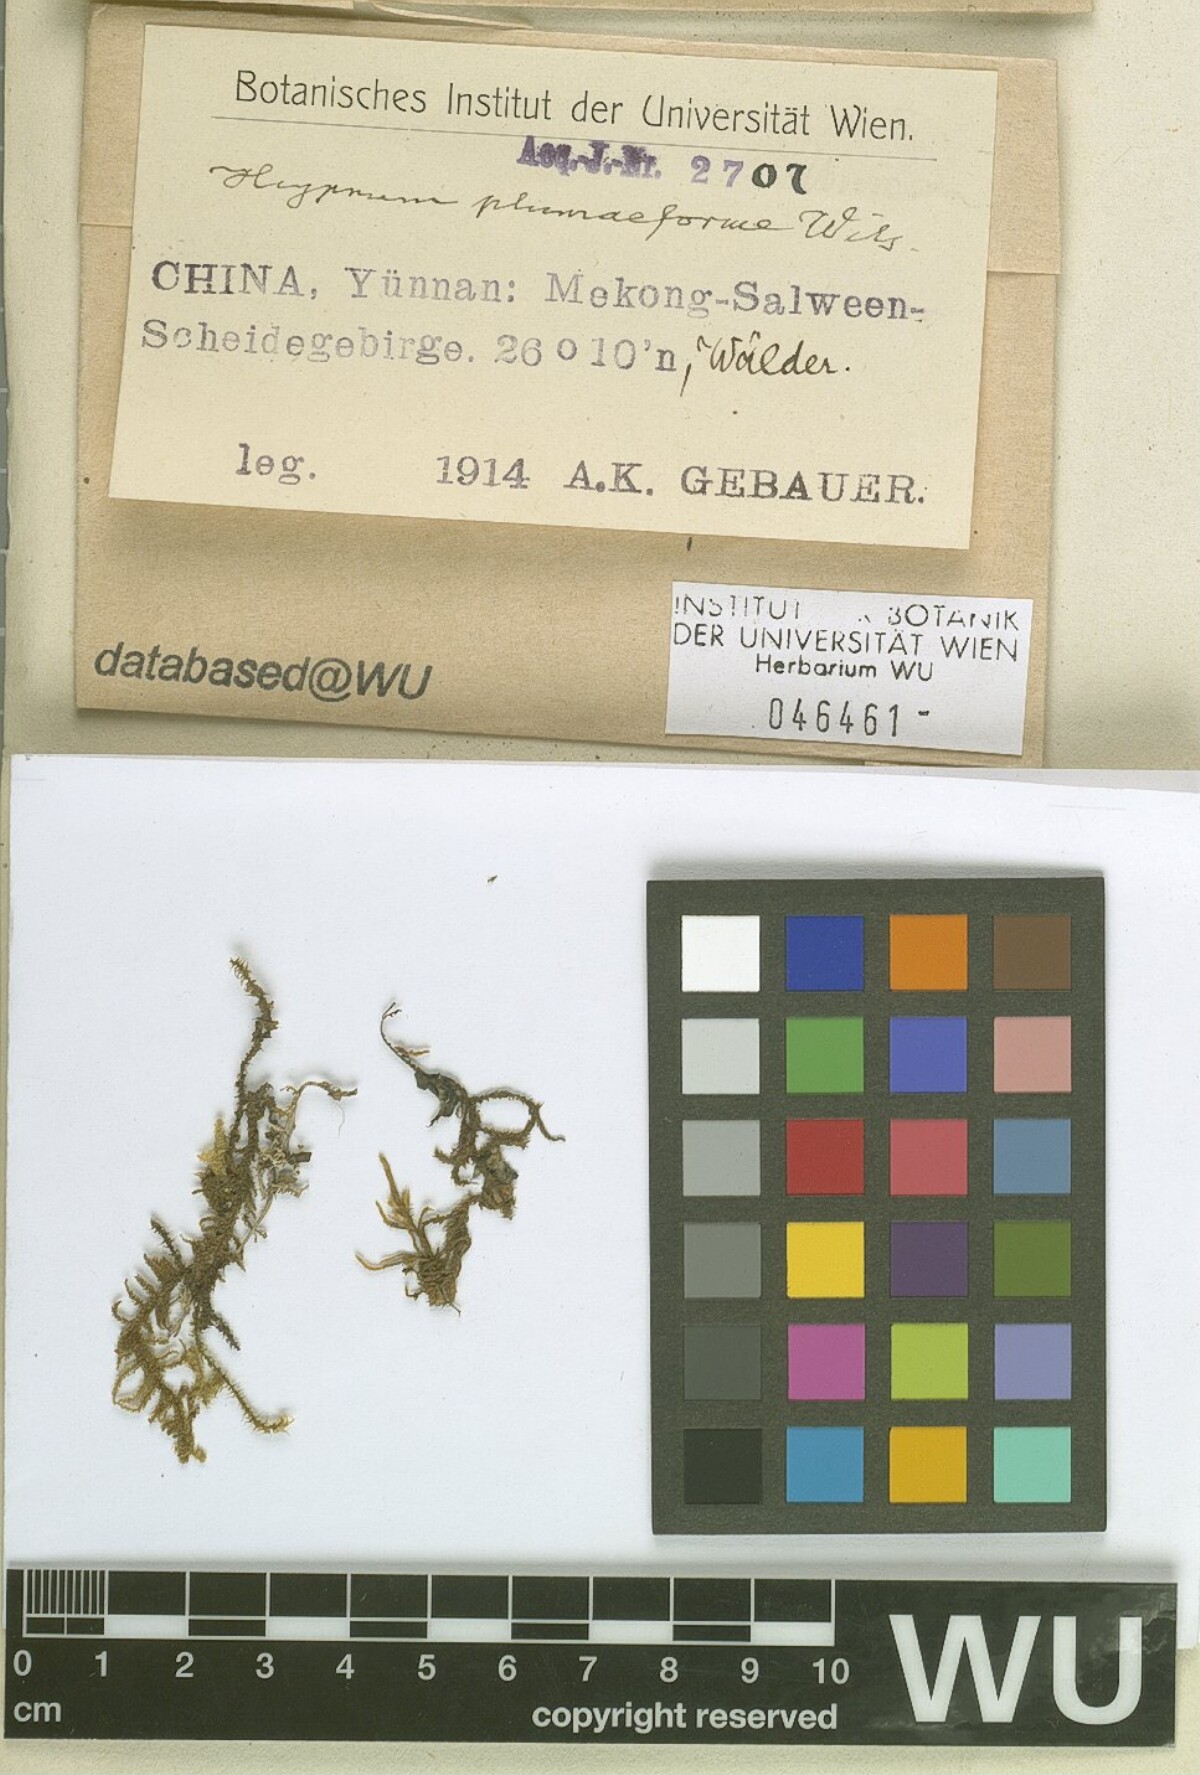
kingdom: Plantae
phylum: Bryophyta
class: Bryopsida
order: Hypnales
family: Hypnaceae
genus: Hypnum
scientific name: Hypnum plumaeforme
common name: Cypress-leaved plaitmoss
